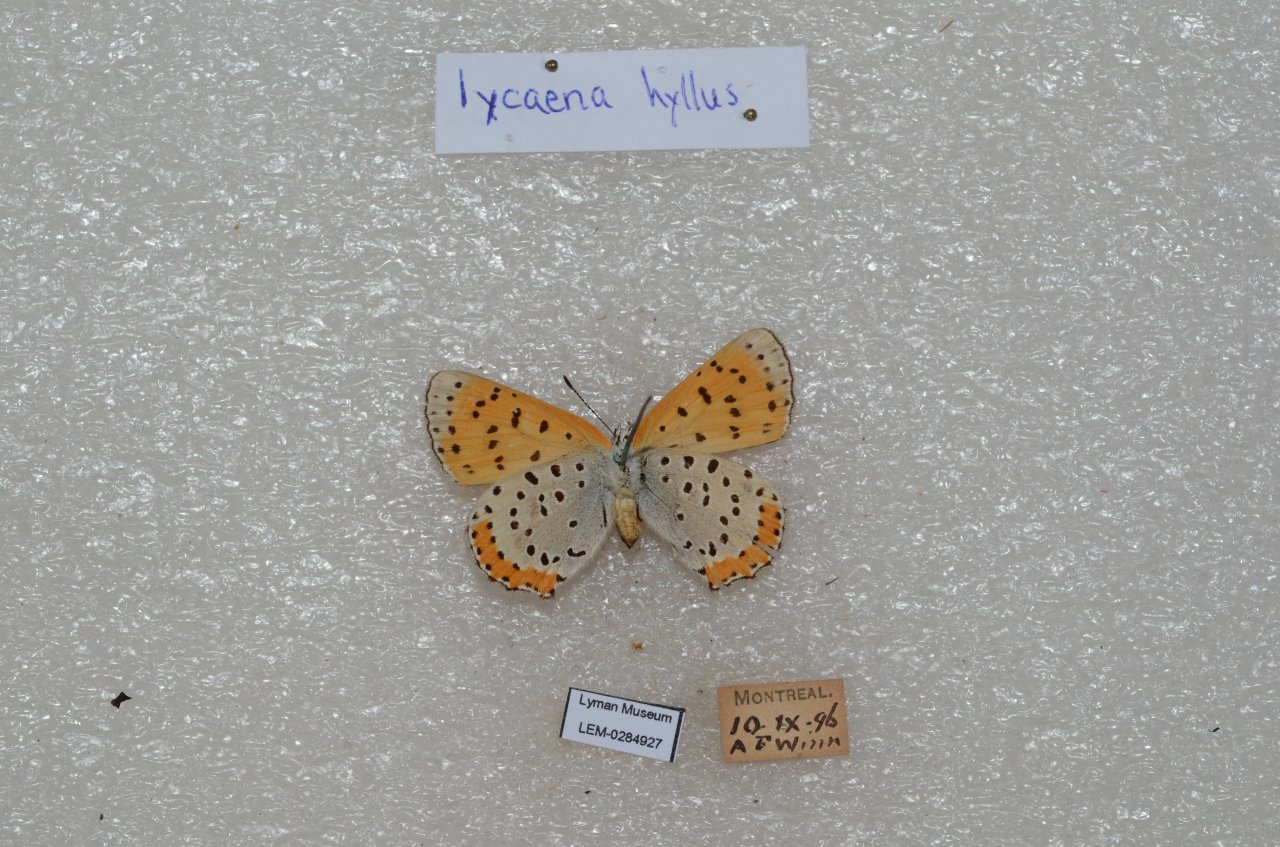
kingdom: Animalia
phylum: Arthropoda
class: Insecta
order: Lepidoptera
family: Sesiidae
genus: Sesia
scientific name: Sesia Lycaena hyllus
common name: Bronze Copper
